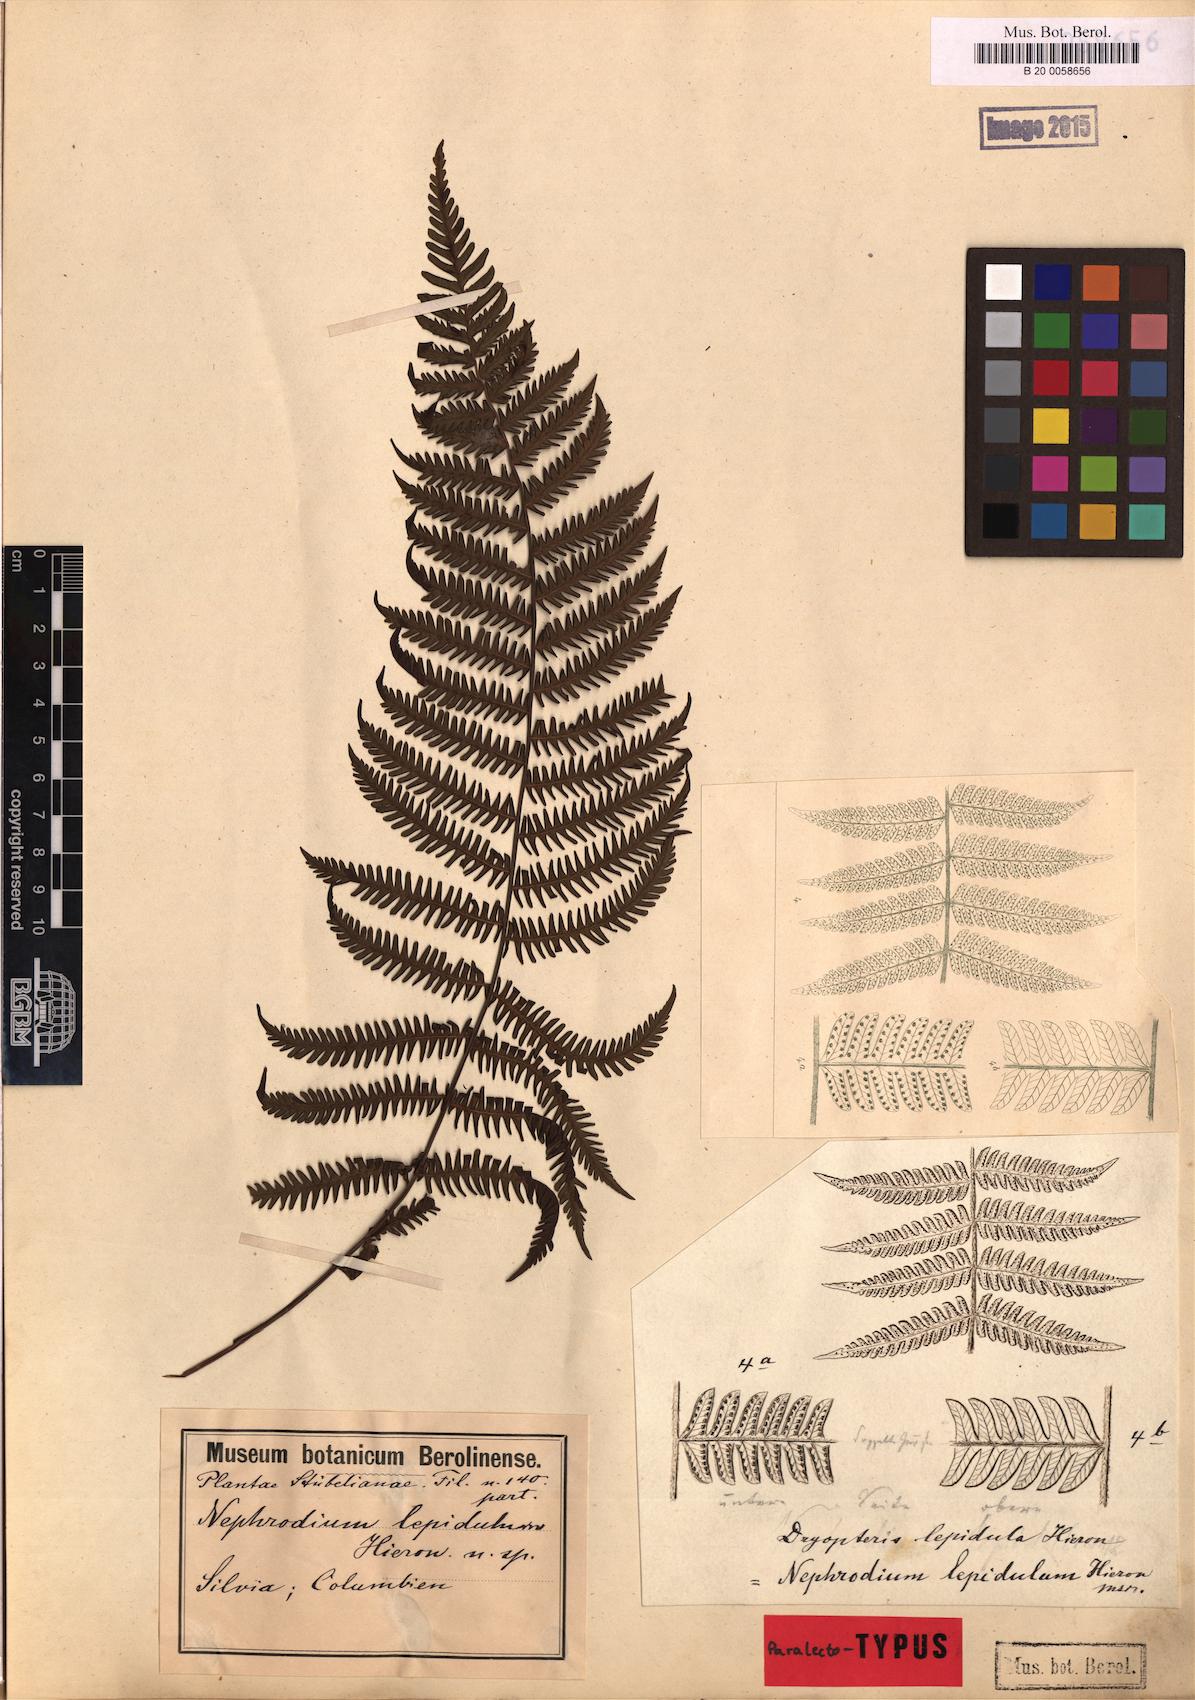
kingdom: Plantae
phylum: Tracheophyta
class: Polypodiopsida
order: Polypodiales
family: Thelypteridaceae
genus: Amauropelta
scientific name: Amauropelta lepidula
